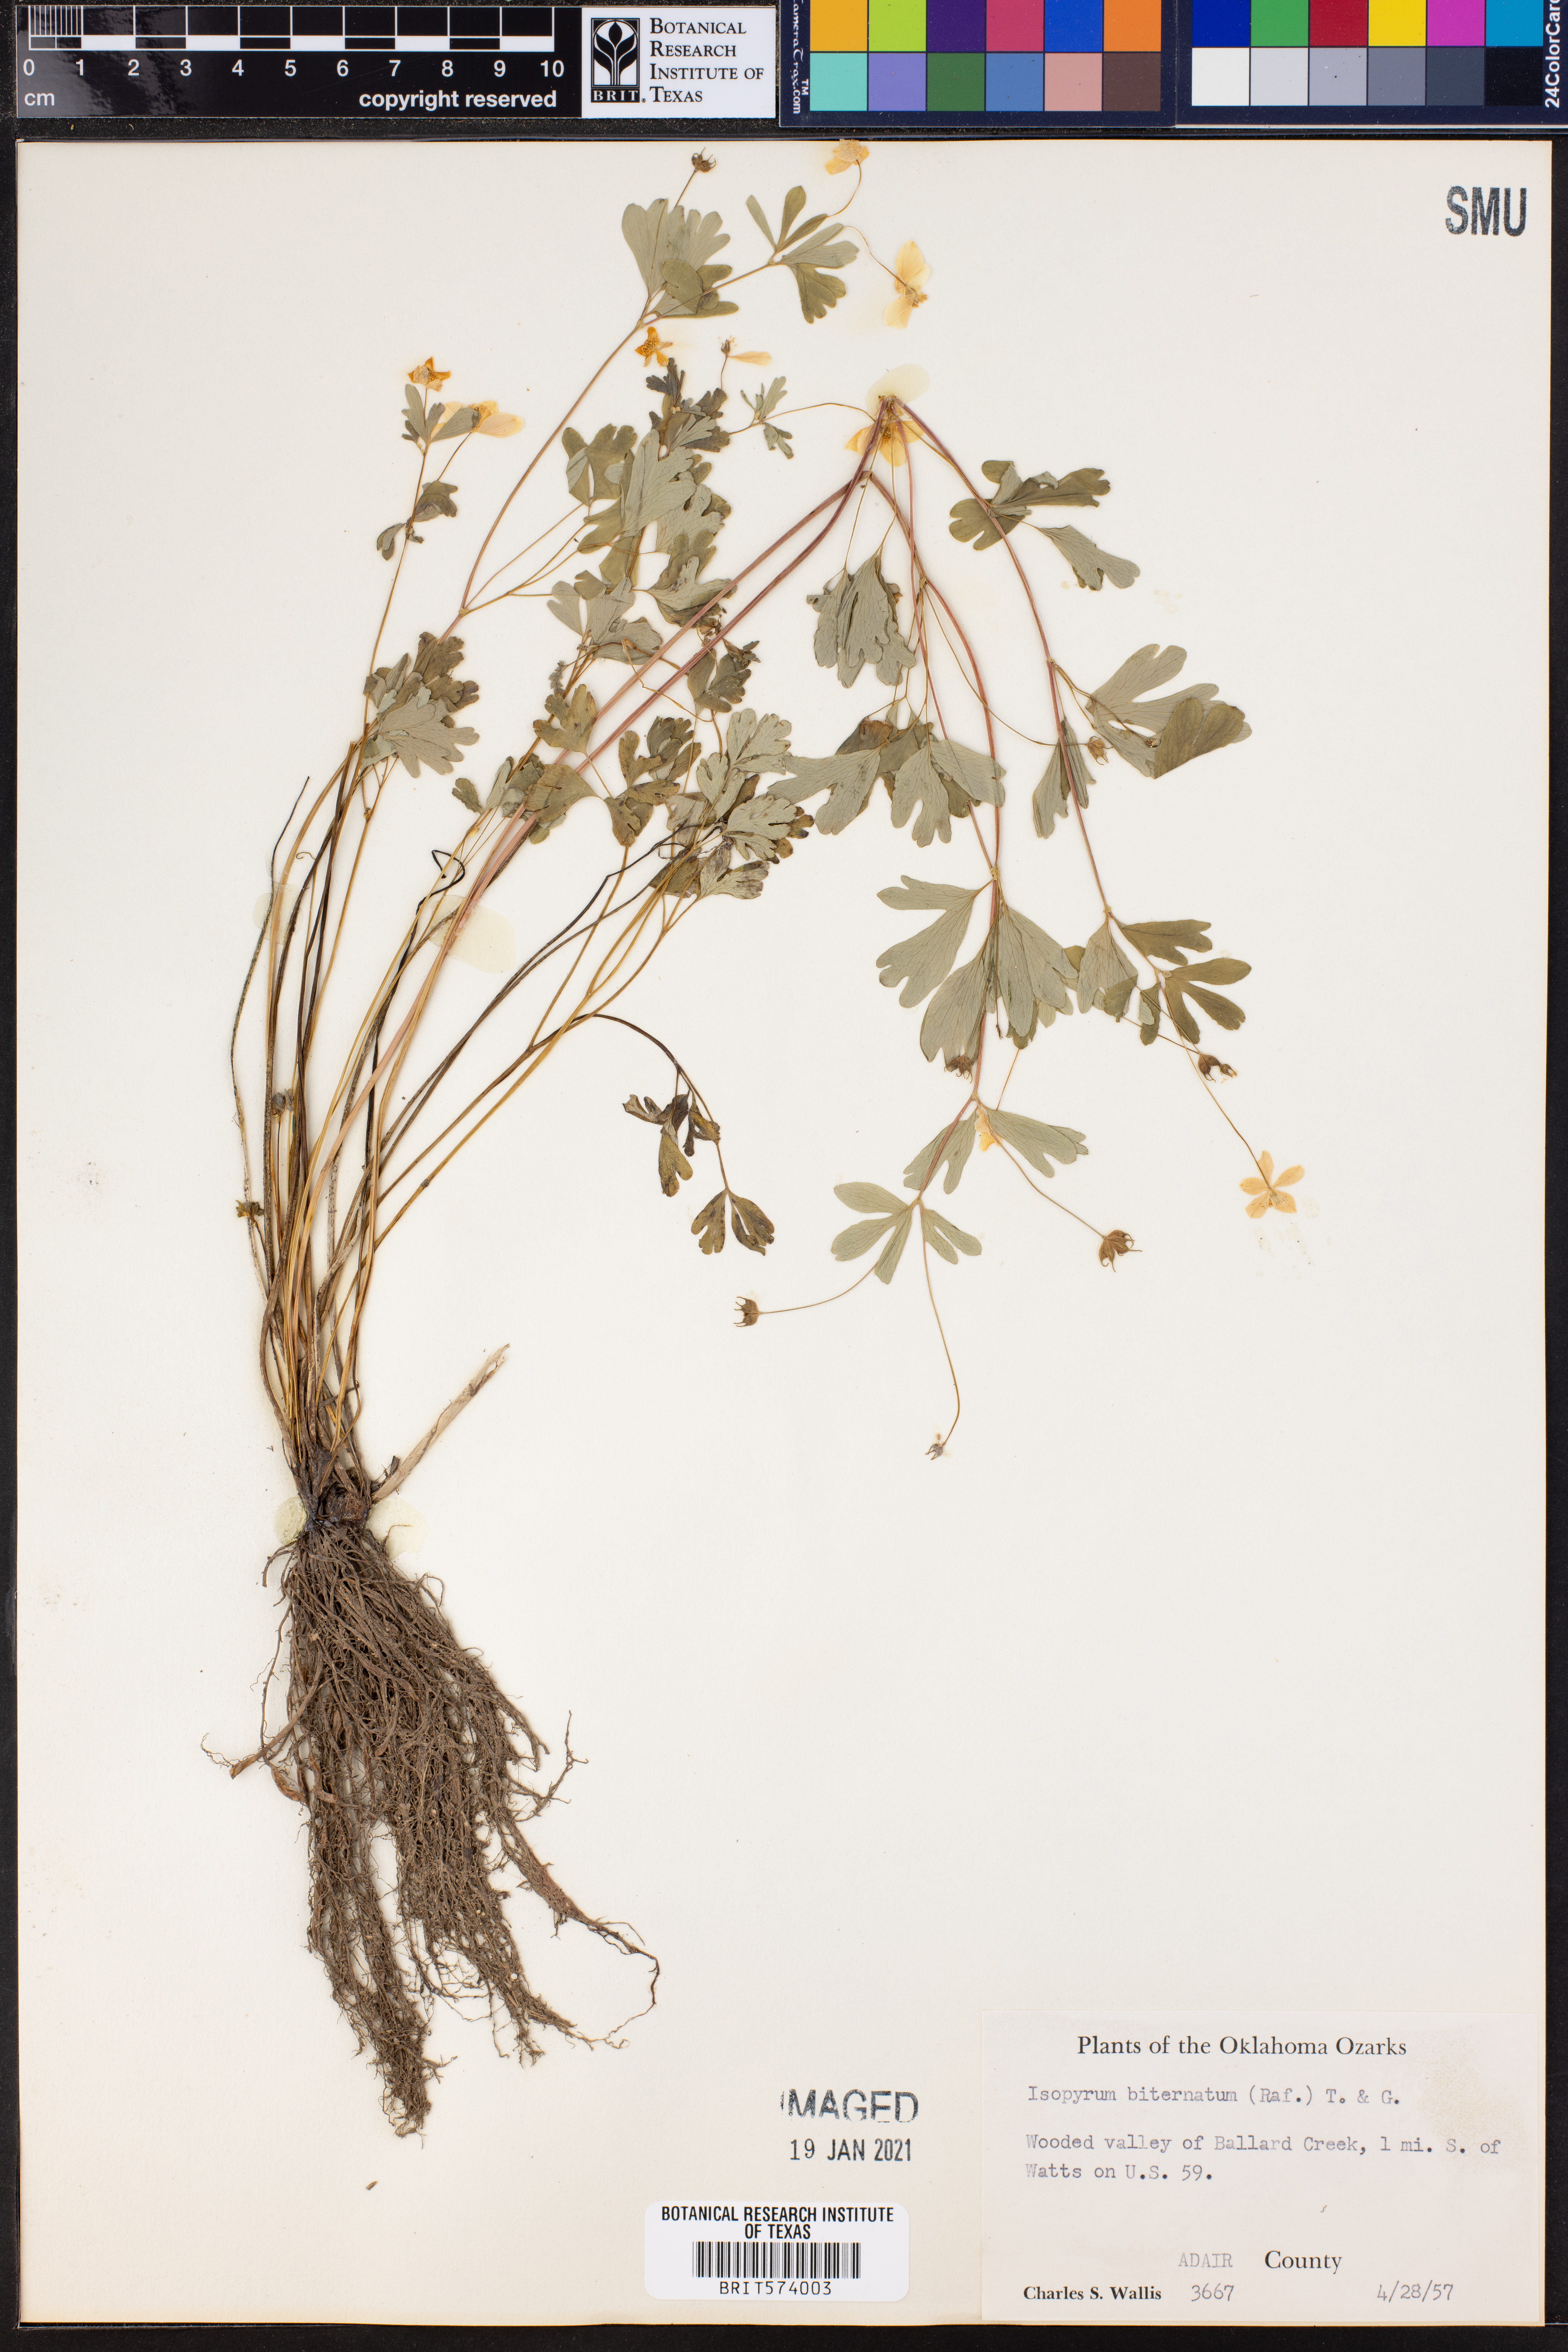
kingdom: Plantae
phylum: Tracheophyta
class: Magnoliopsida
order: Ranunculales
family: Ranunculaceae
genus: Enemion
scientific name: Enemion biternatum
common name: Eastern false rue-anemone
